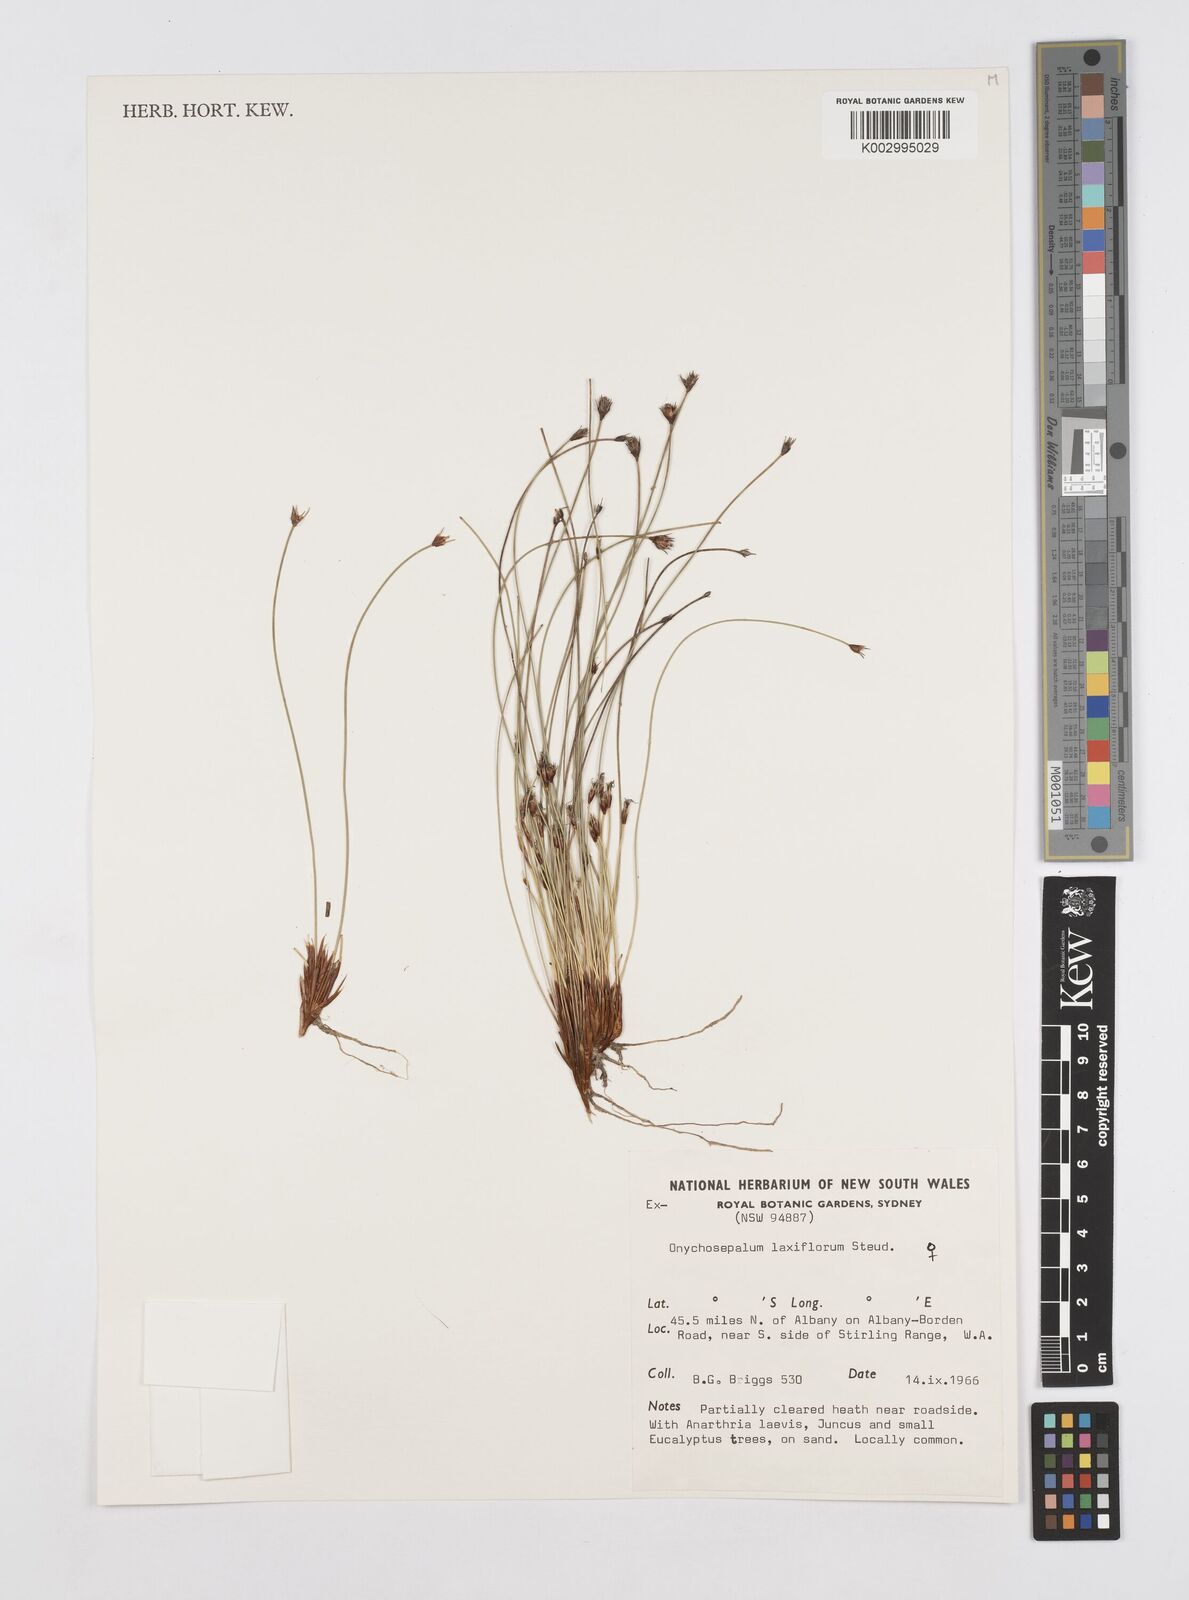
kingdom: Plantae
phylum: Tracheophyta
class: Liliopsida
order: Poales
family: Restionaceae
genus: Desmocladus
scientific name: Desmocladus laxiflorus
